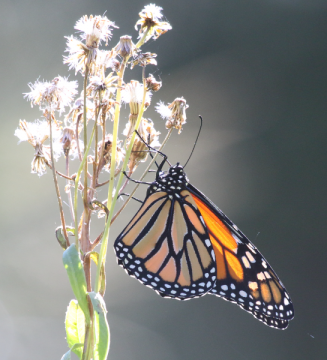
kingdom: Animalia
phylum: Arthropoda
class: Insecta
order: Lepidoptera
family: Nymphalidae
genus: Danaus
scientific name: Danaus plexippus
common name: Monarch
